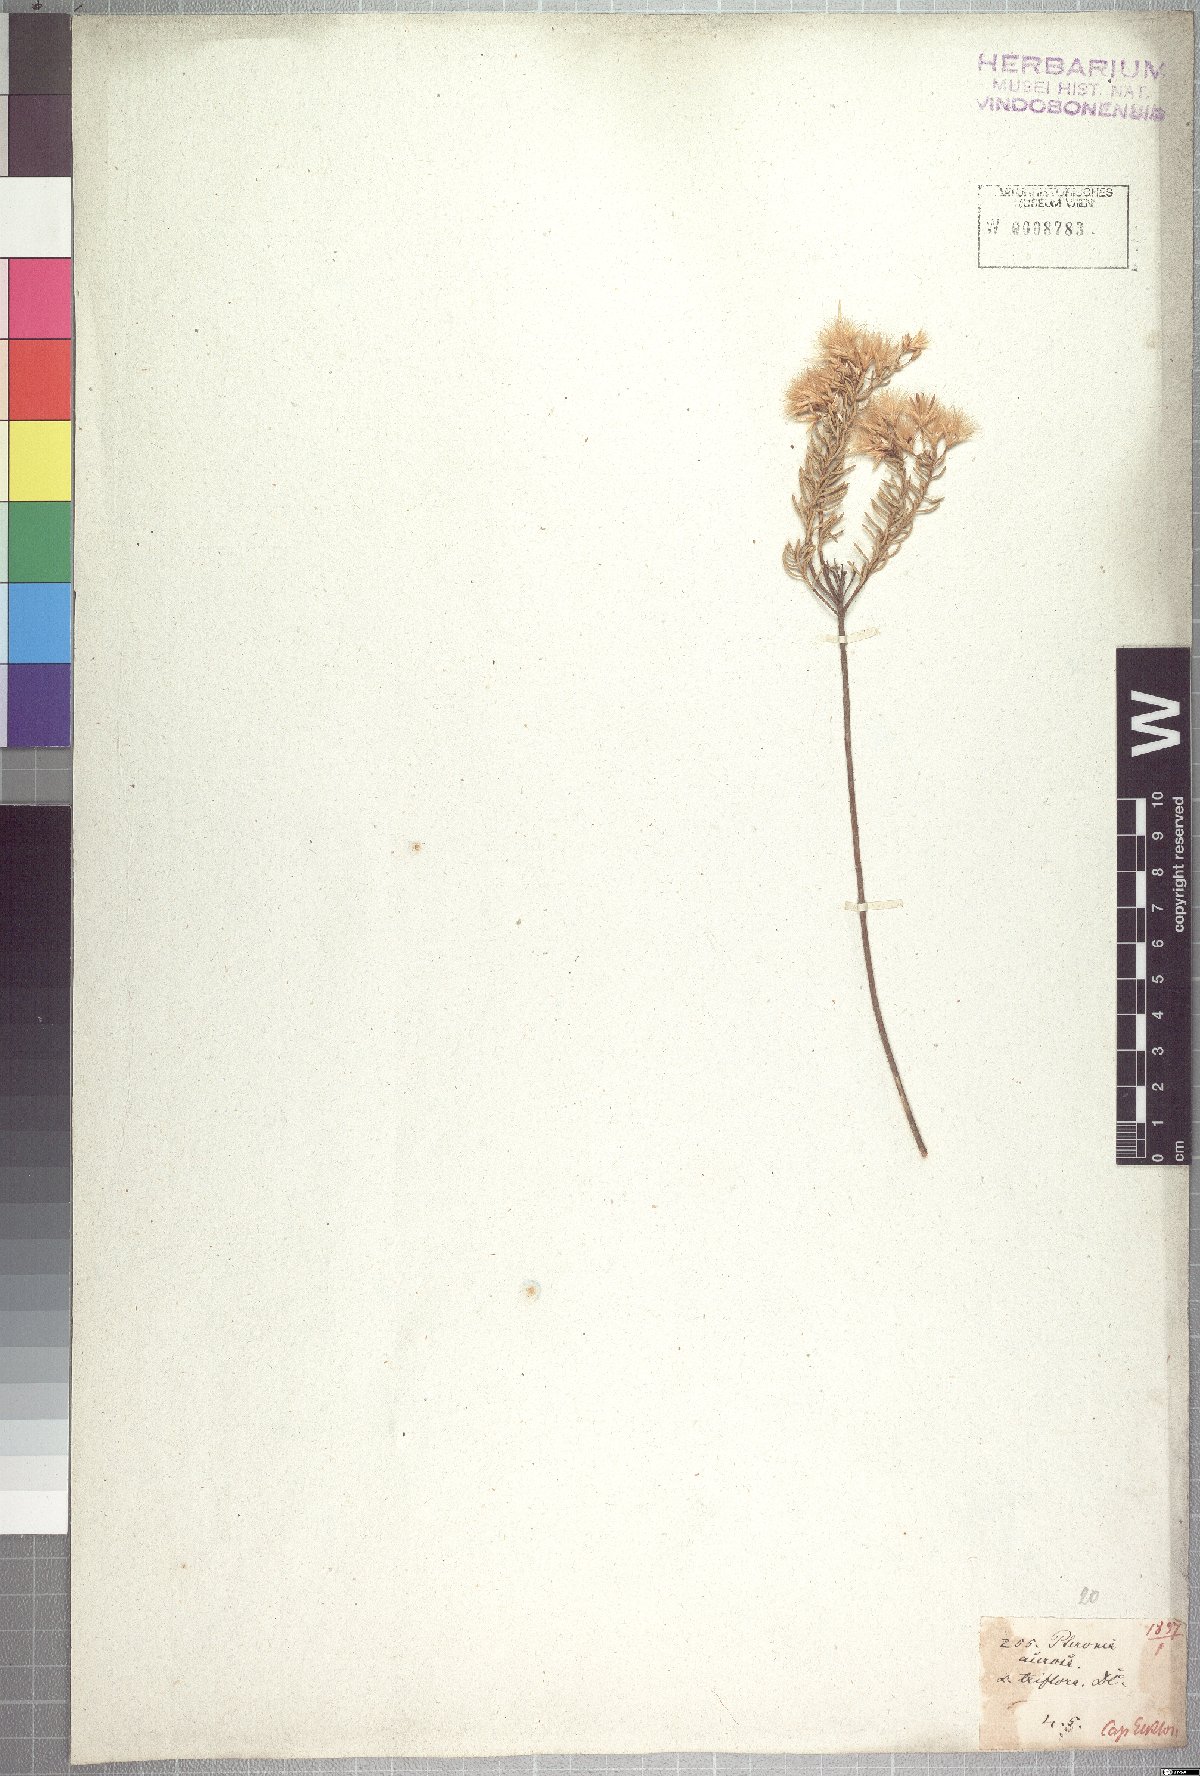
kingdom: Plantae
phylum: Tracheophyta
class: Magnoliopsida
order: Asterales
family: Asteraceae
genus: Pteronia
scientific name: Pteronia teretifolia
